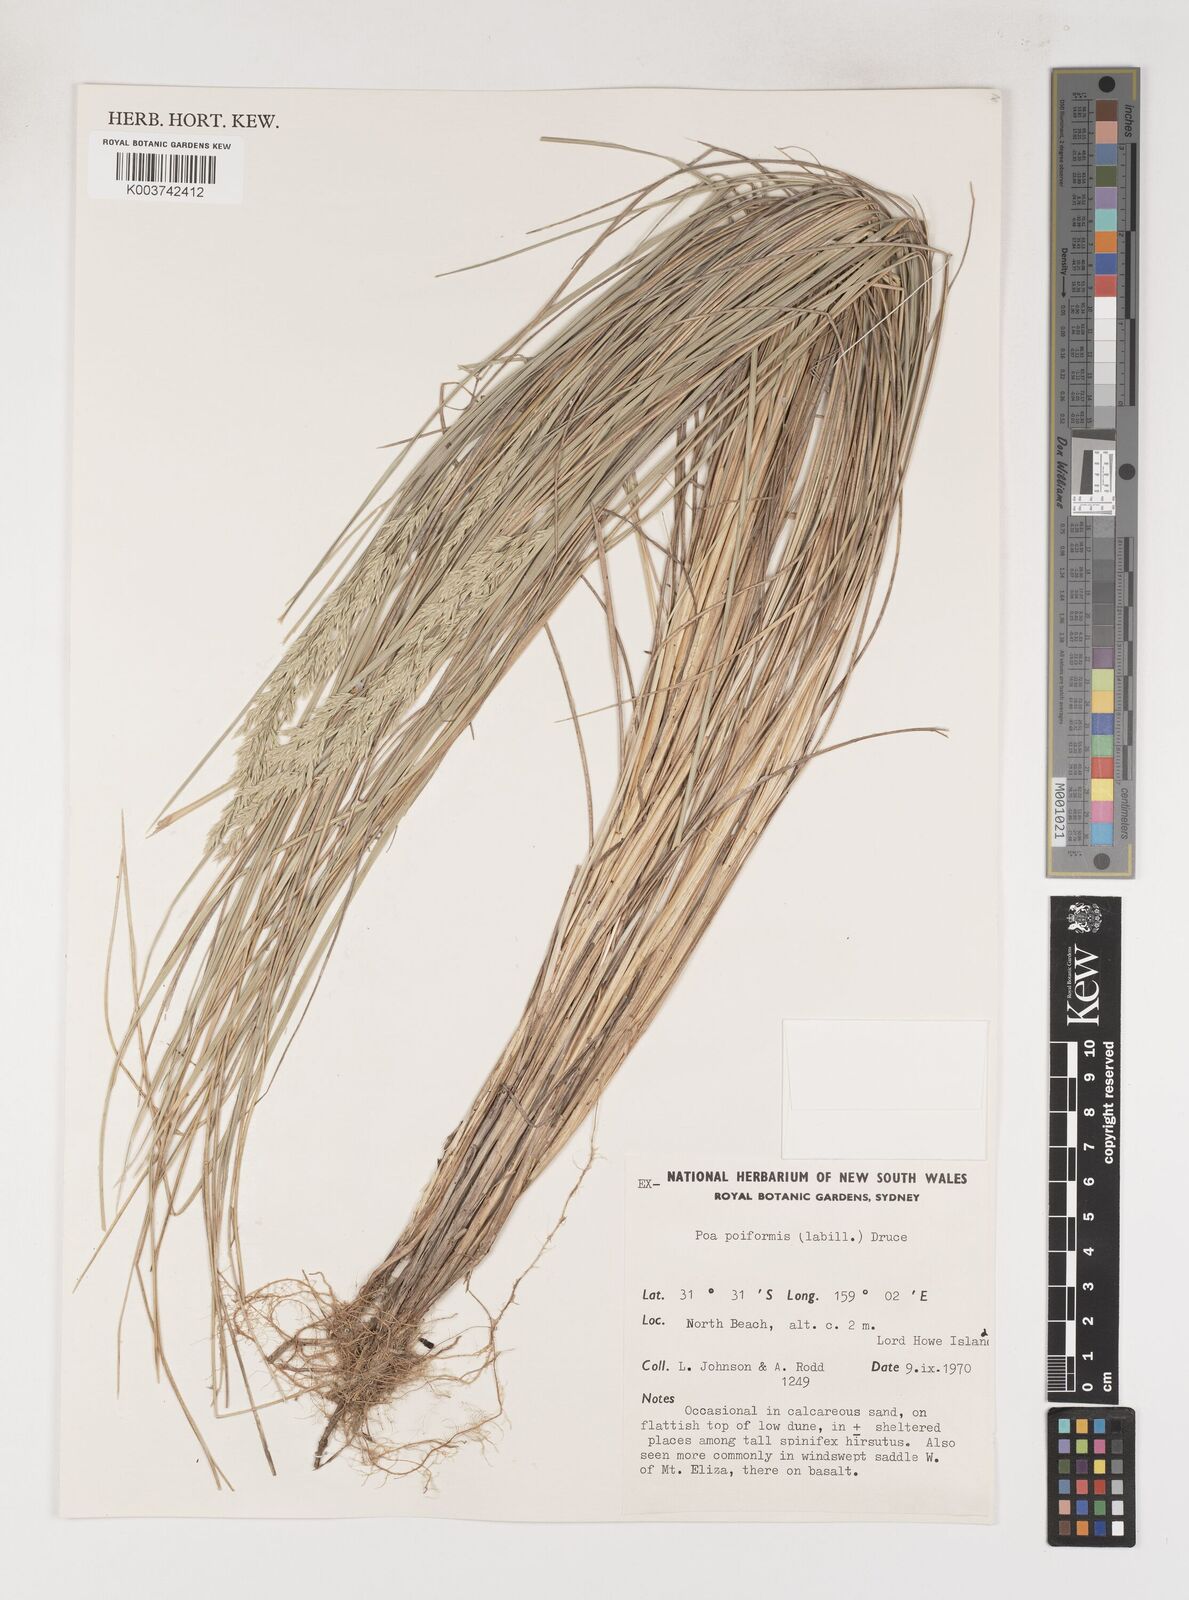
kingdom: Plantae
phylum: Tracheophyta
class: Liliopsida
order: Poales
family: Poaceae
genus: Poa
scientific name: Poa poiformis
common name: Tussock poa
